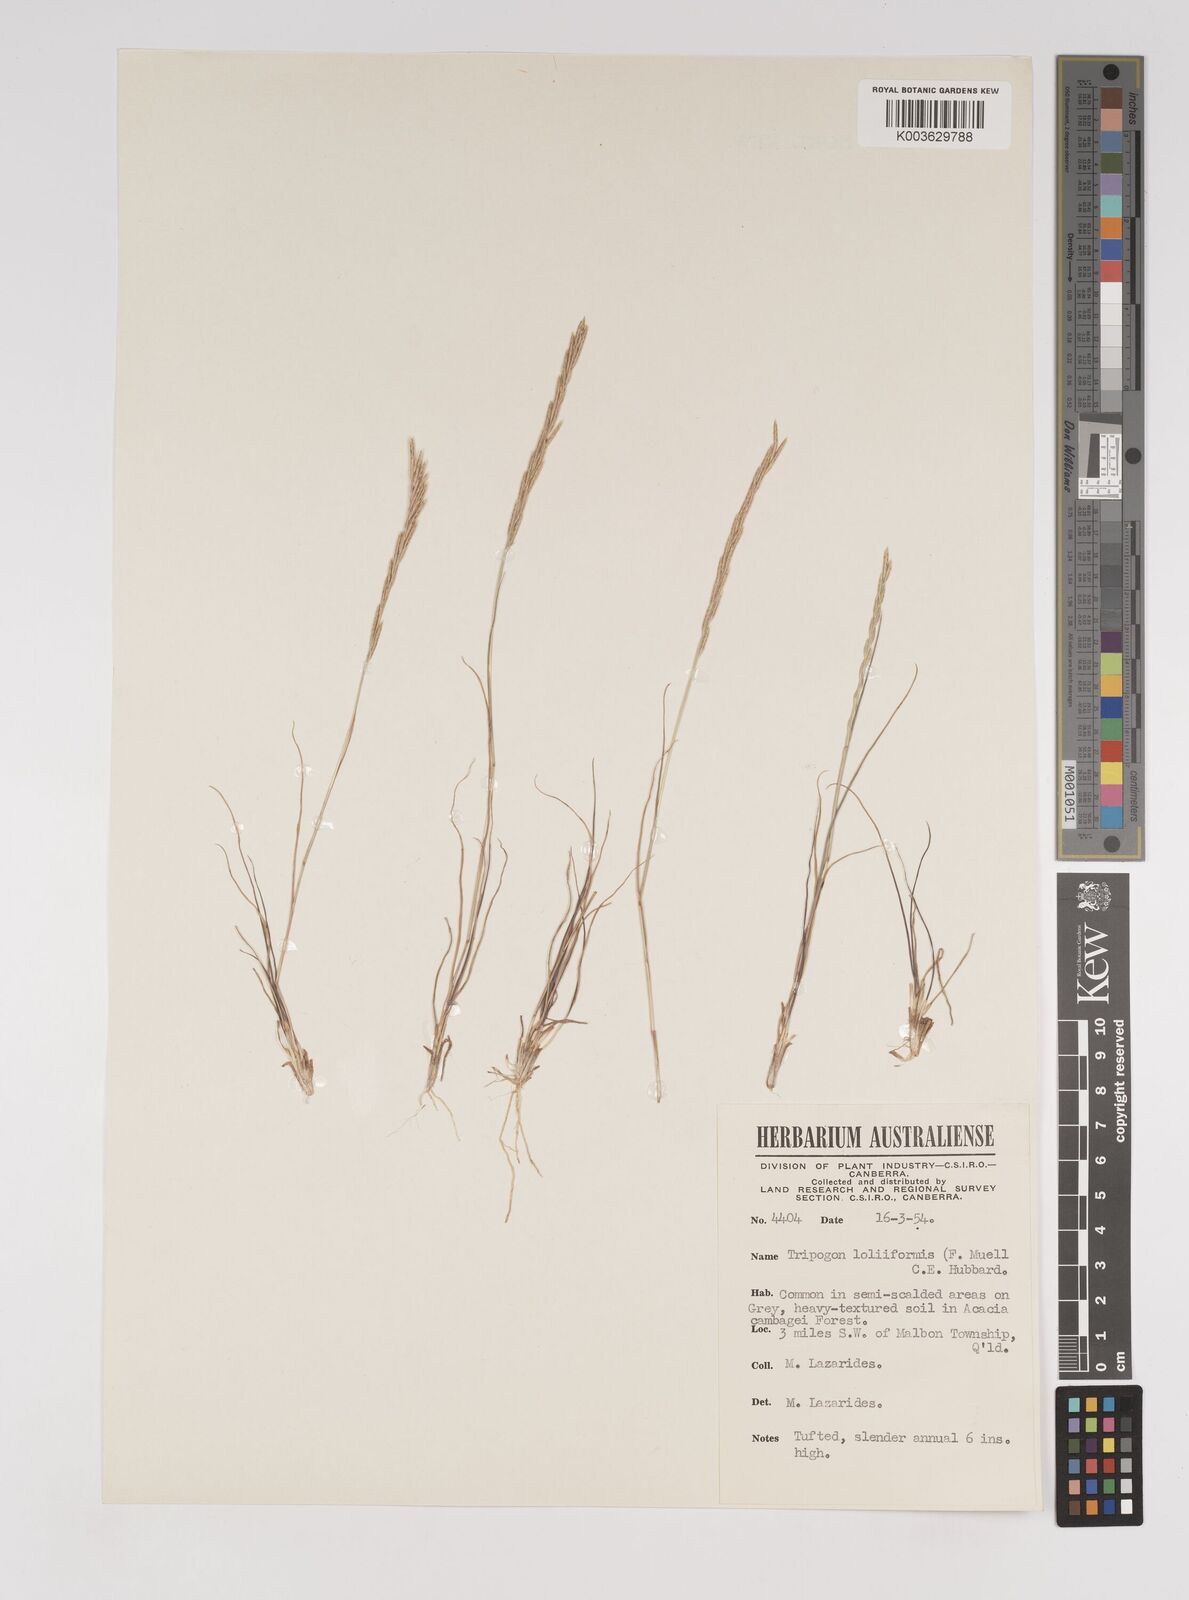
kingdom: Plantae
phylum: Tracheophyta
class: Liliopsida
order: Poales
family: Poaceae
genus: Tripogonella
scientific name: Tripogonella loliiformis
